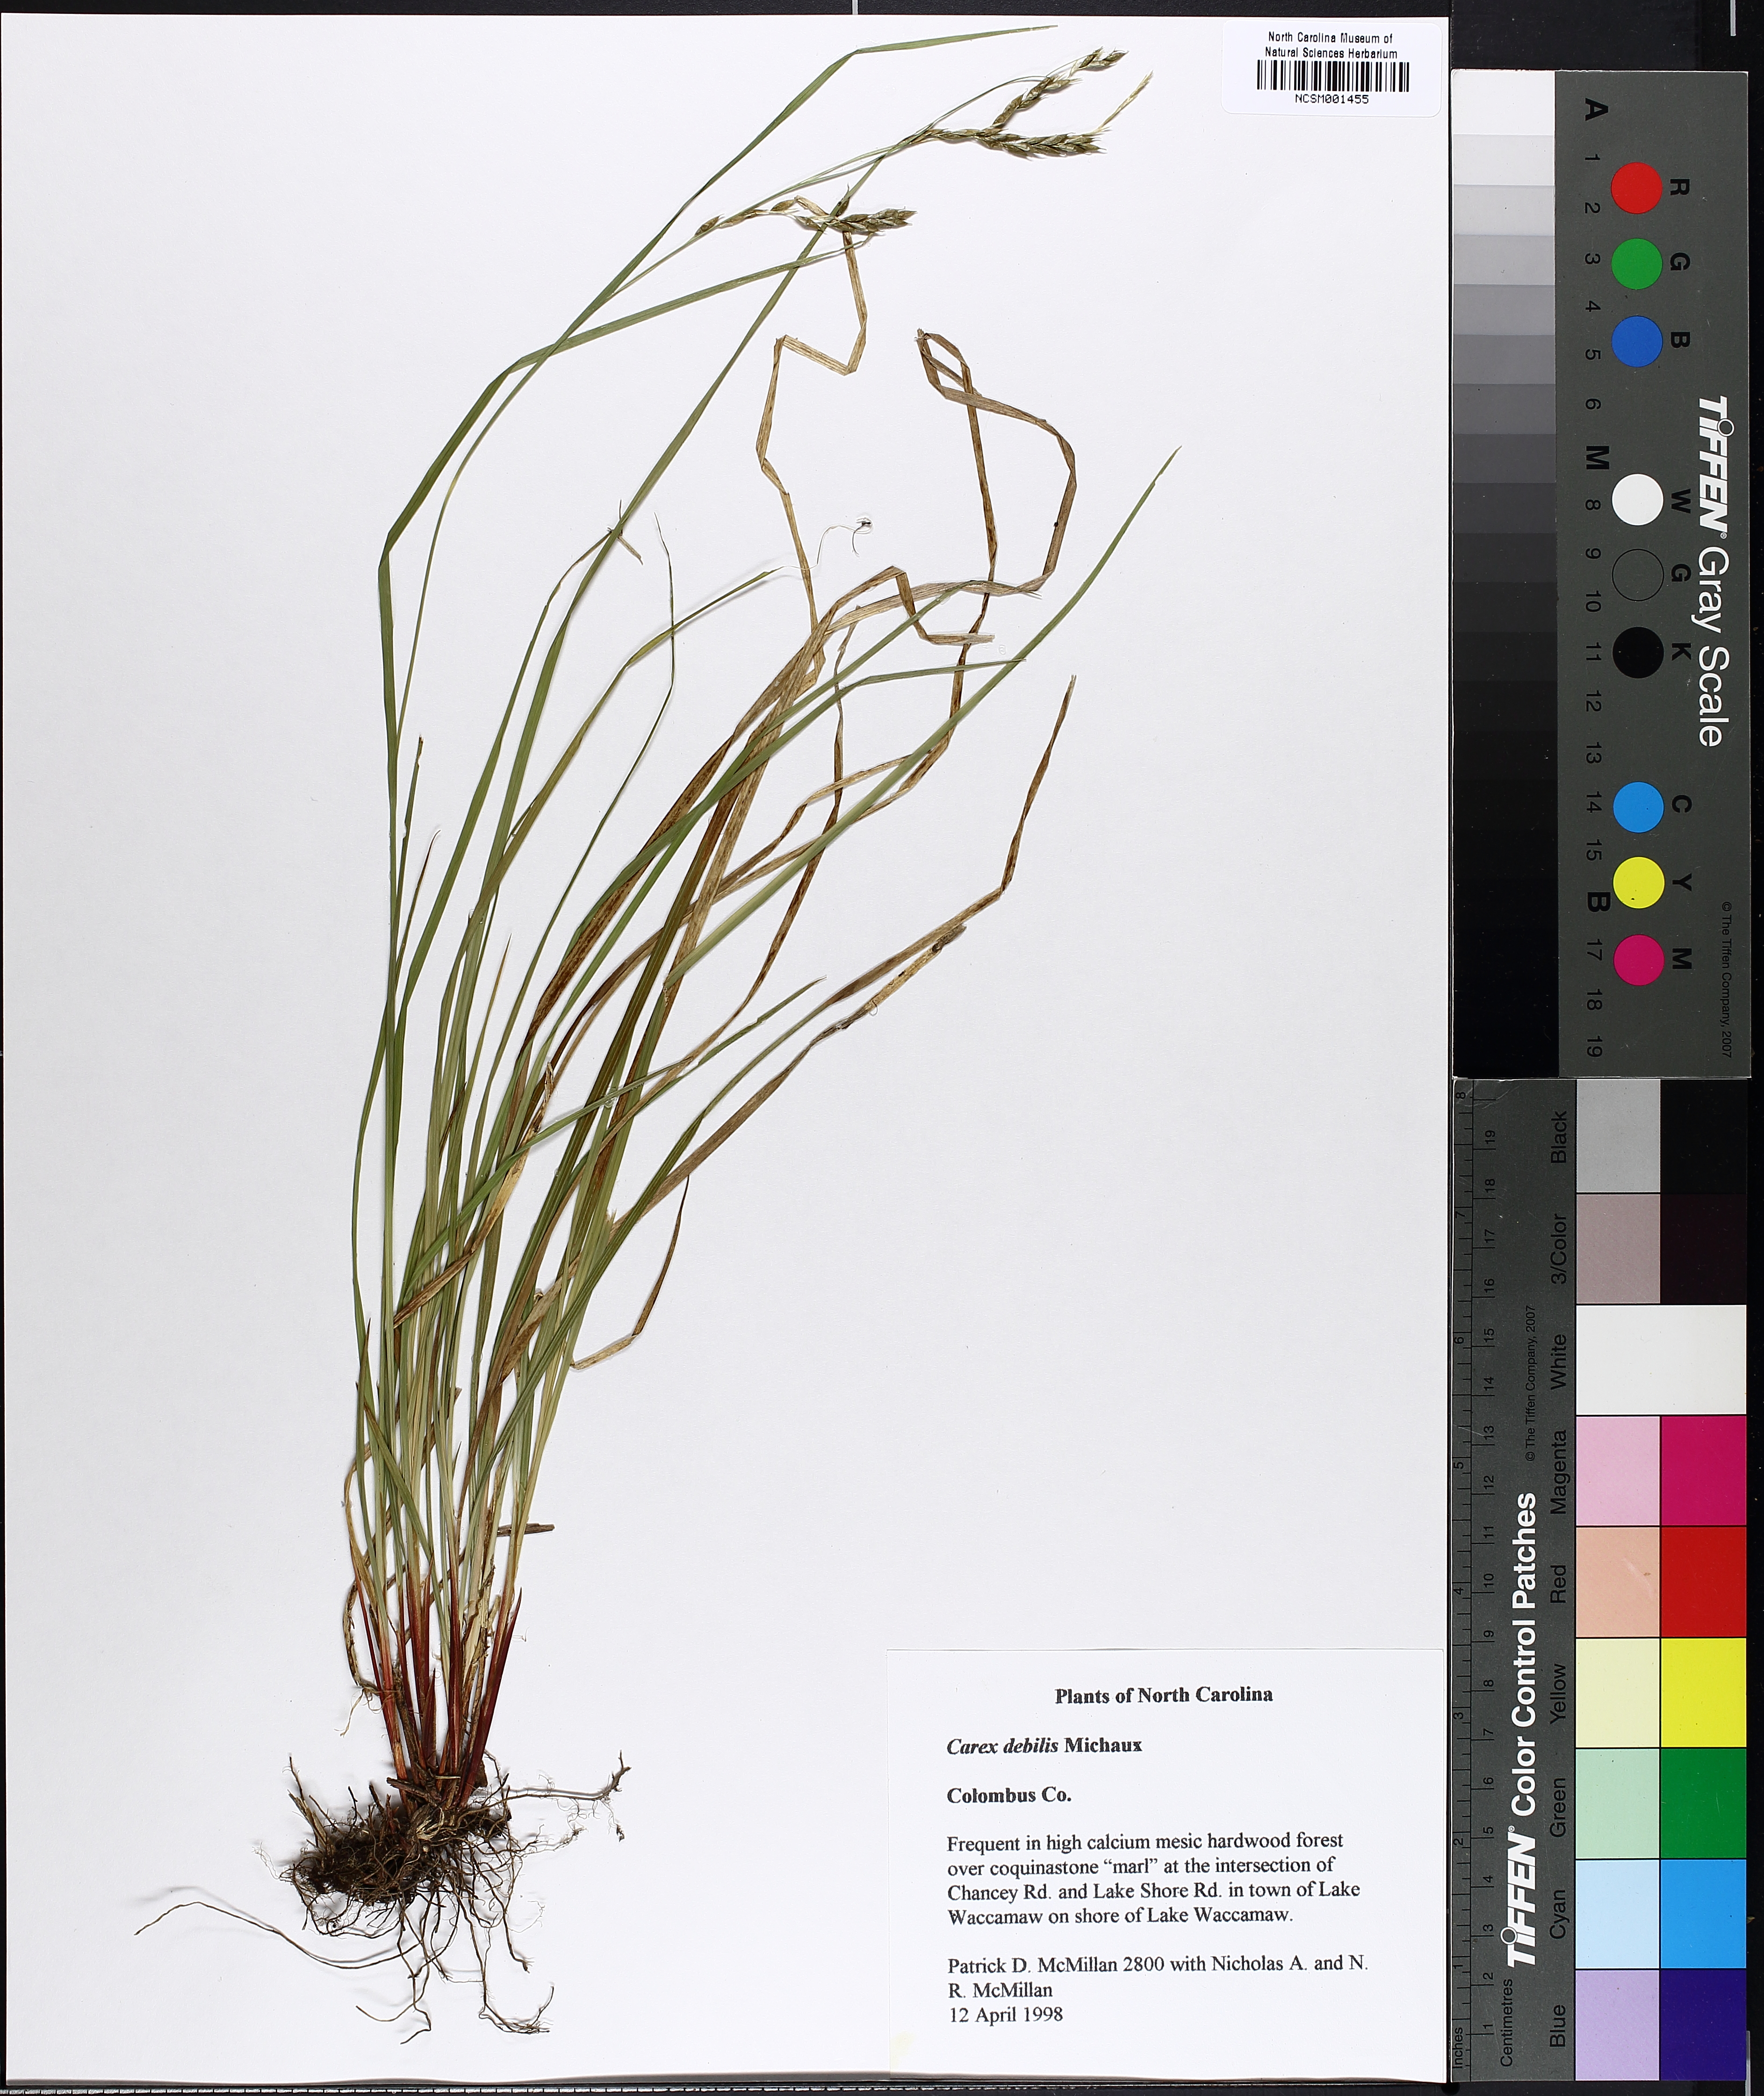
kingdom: Plantae
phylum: Tracheophyta
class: Liliopsida
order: Poales
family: Cyperaceae
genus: Carex
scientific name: Carex debilis
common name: White-edge sedge
